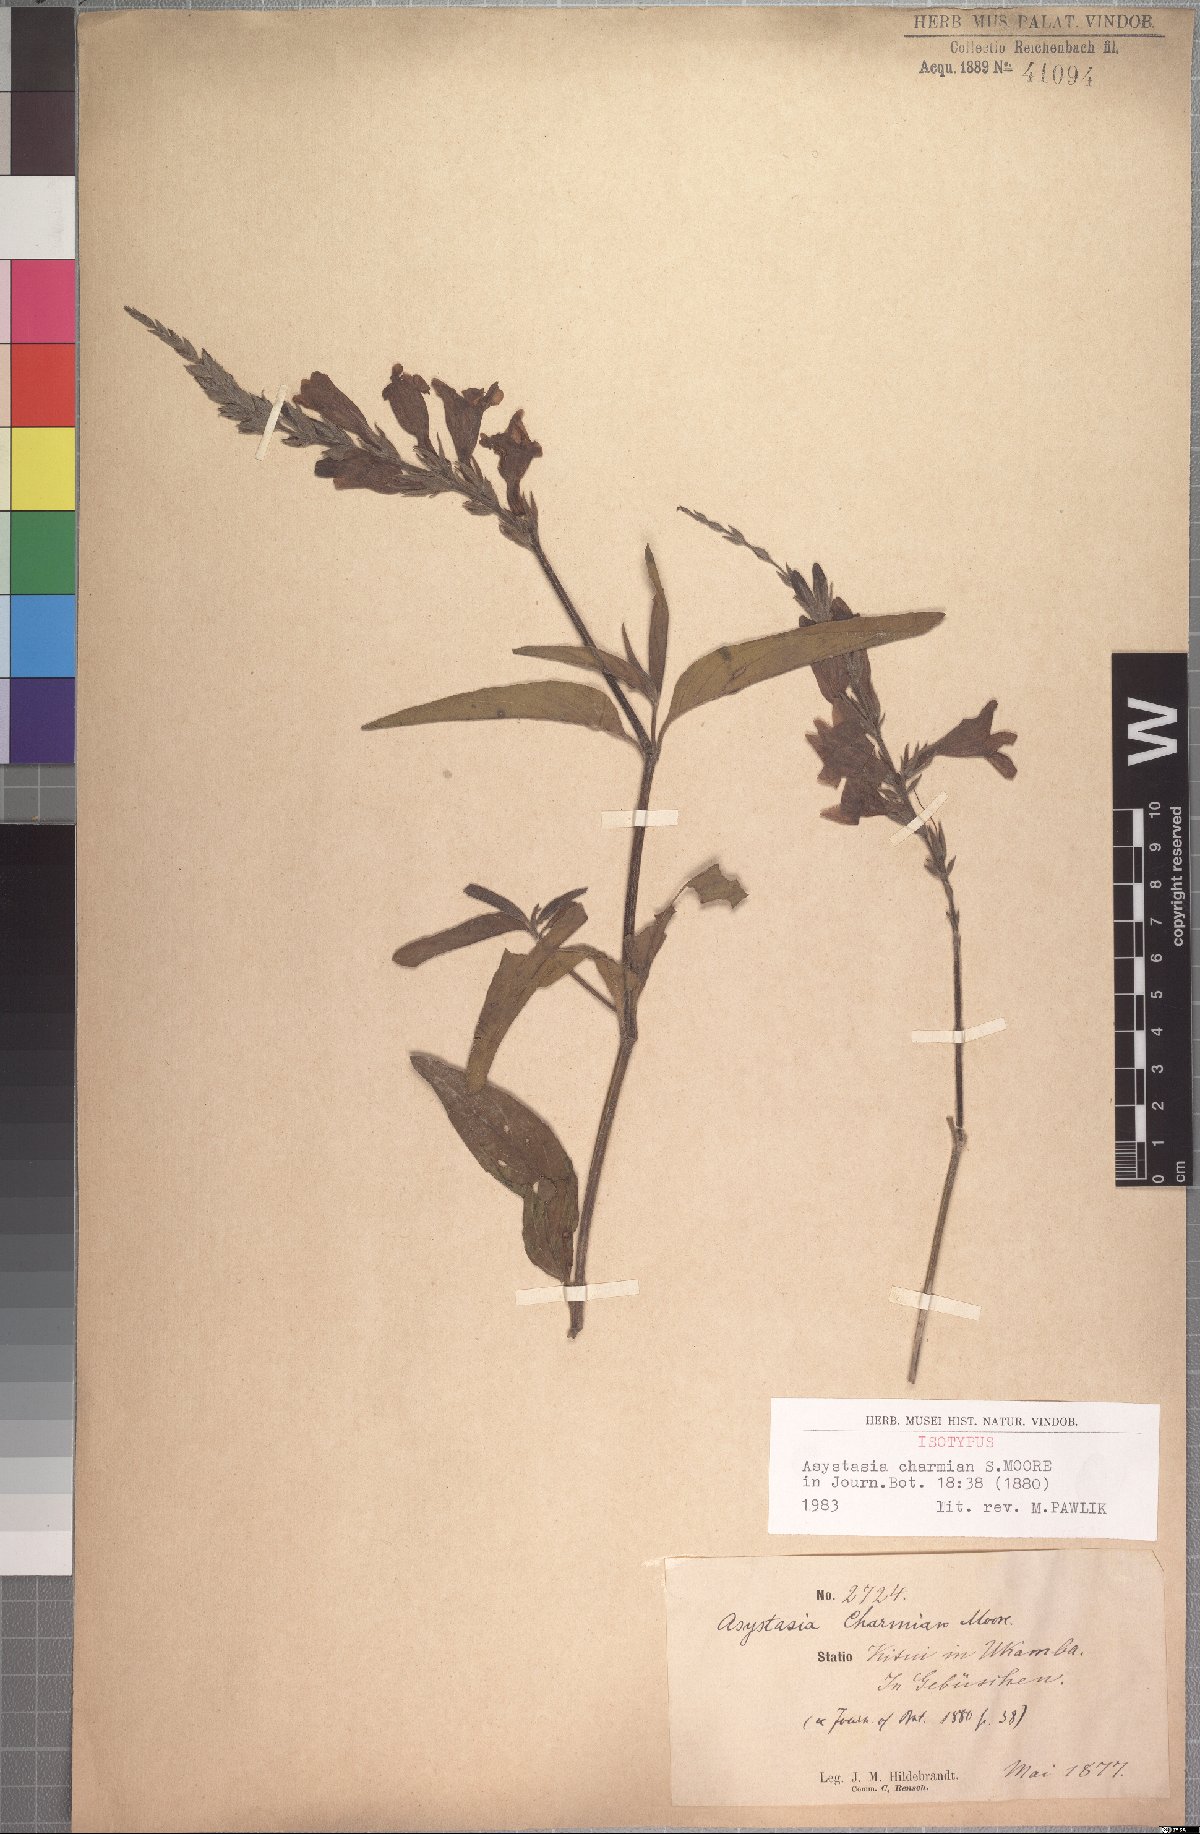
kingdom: Plantae
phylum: Tracheophyta
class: Magnoliopsida
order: Lamiales
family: Acanthaceae
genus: Asystasia
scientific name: Asystasia charmian
